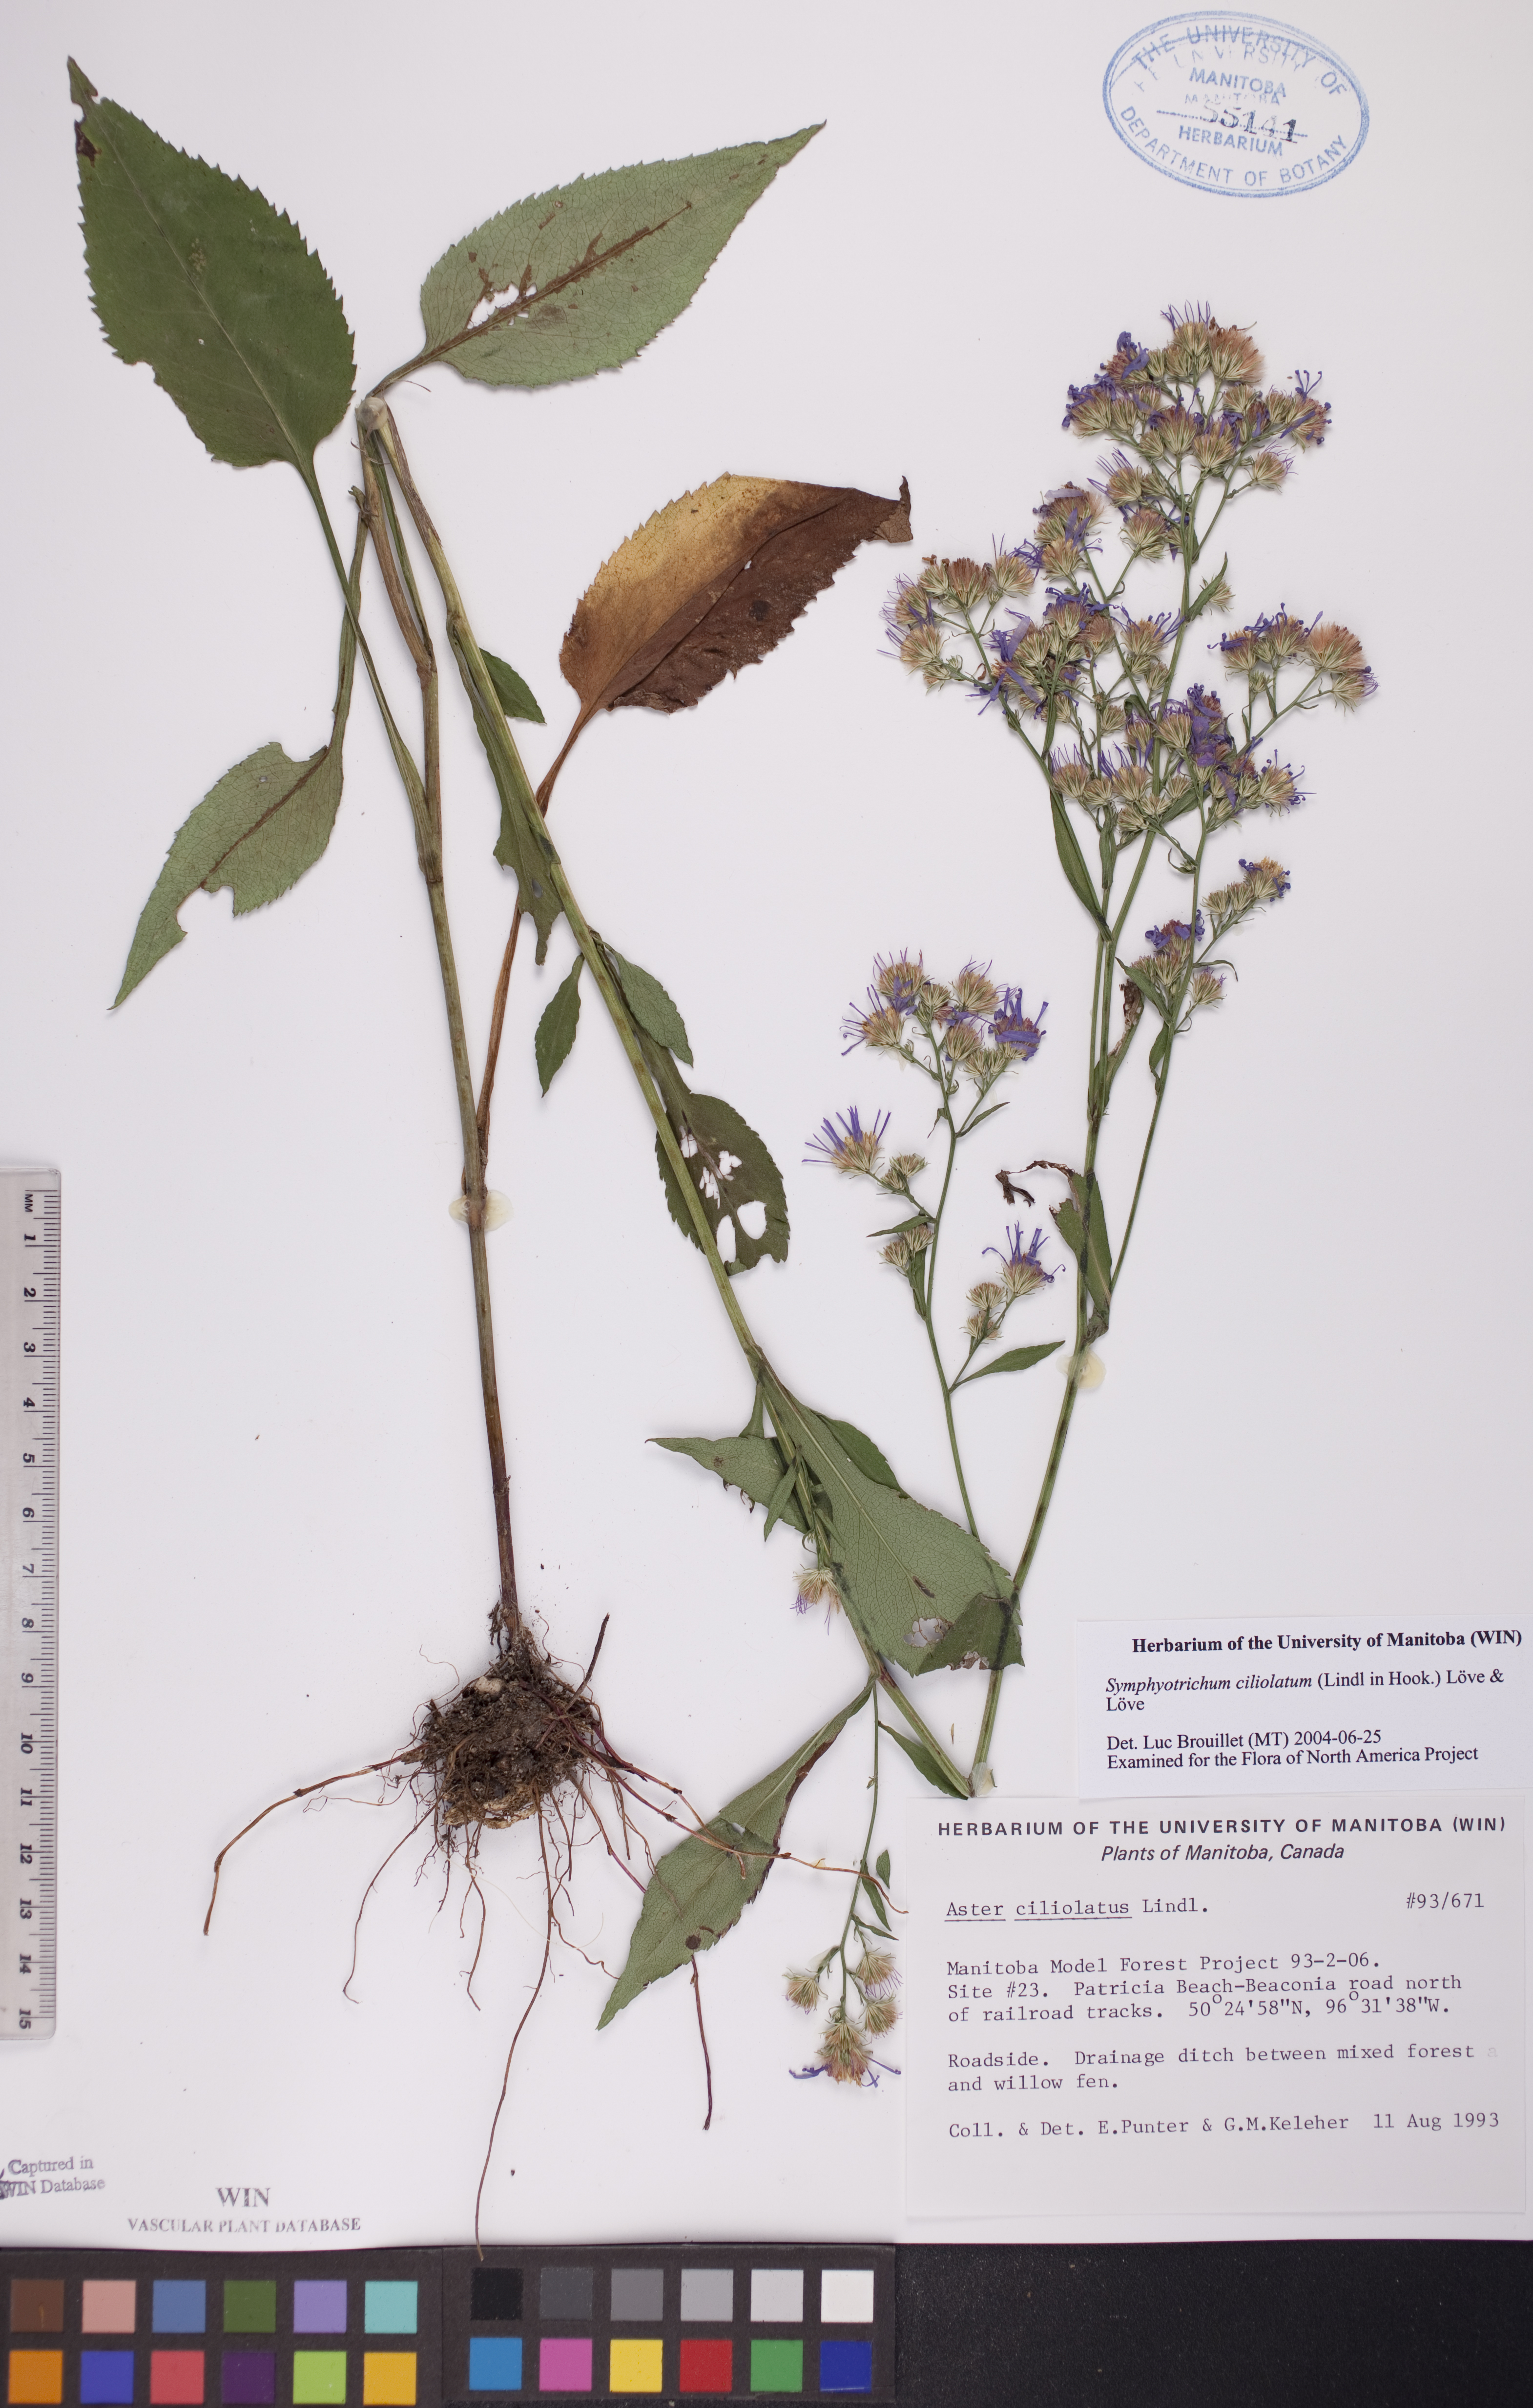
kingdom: Plantae
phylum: Tracheophyta
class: Magnoliopsida
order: Asterales
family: Asteraceae
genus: Symphyotrichum
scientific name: Symphyotrichum ciliolatum
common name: Fringed blue aster
